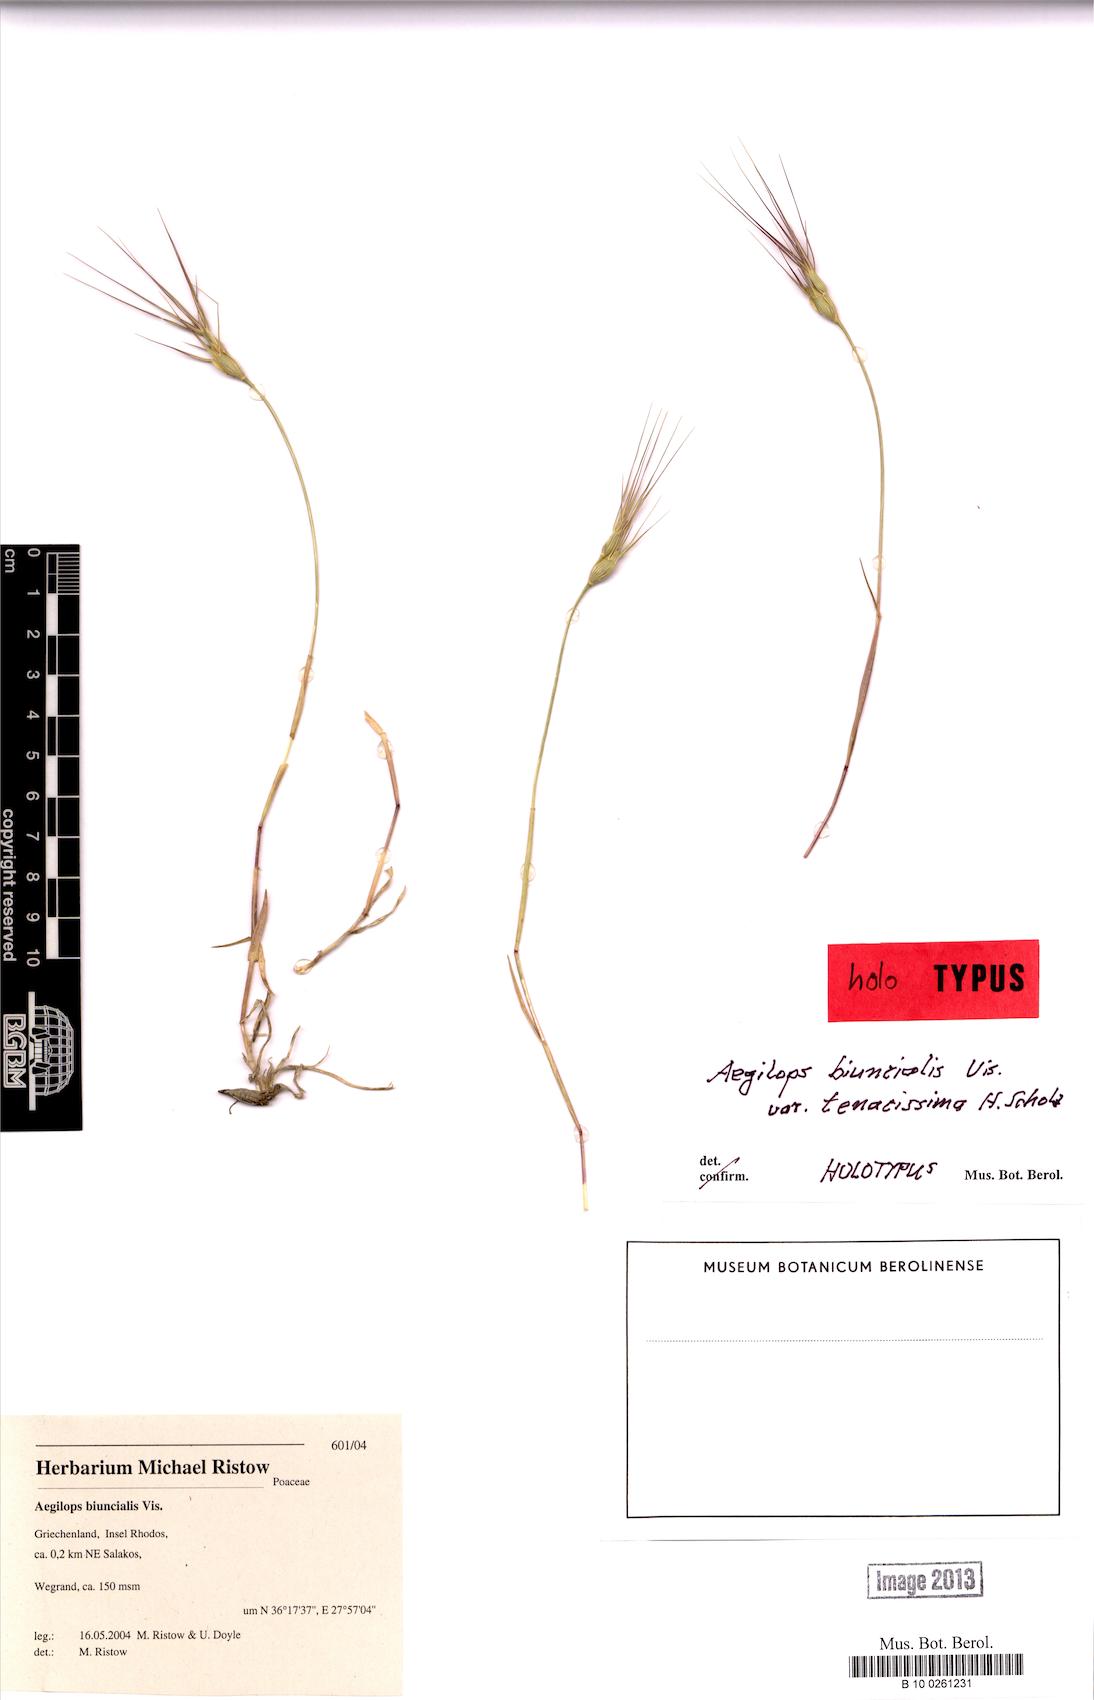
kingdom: Plantae
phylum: Tracheophyta
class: Liliopsida
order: Poales
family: Poaceae
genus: Aegilops
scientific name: Aegilops biuncialis
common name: Mediterranean aegilops
